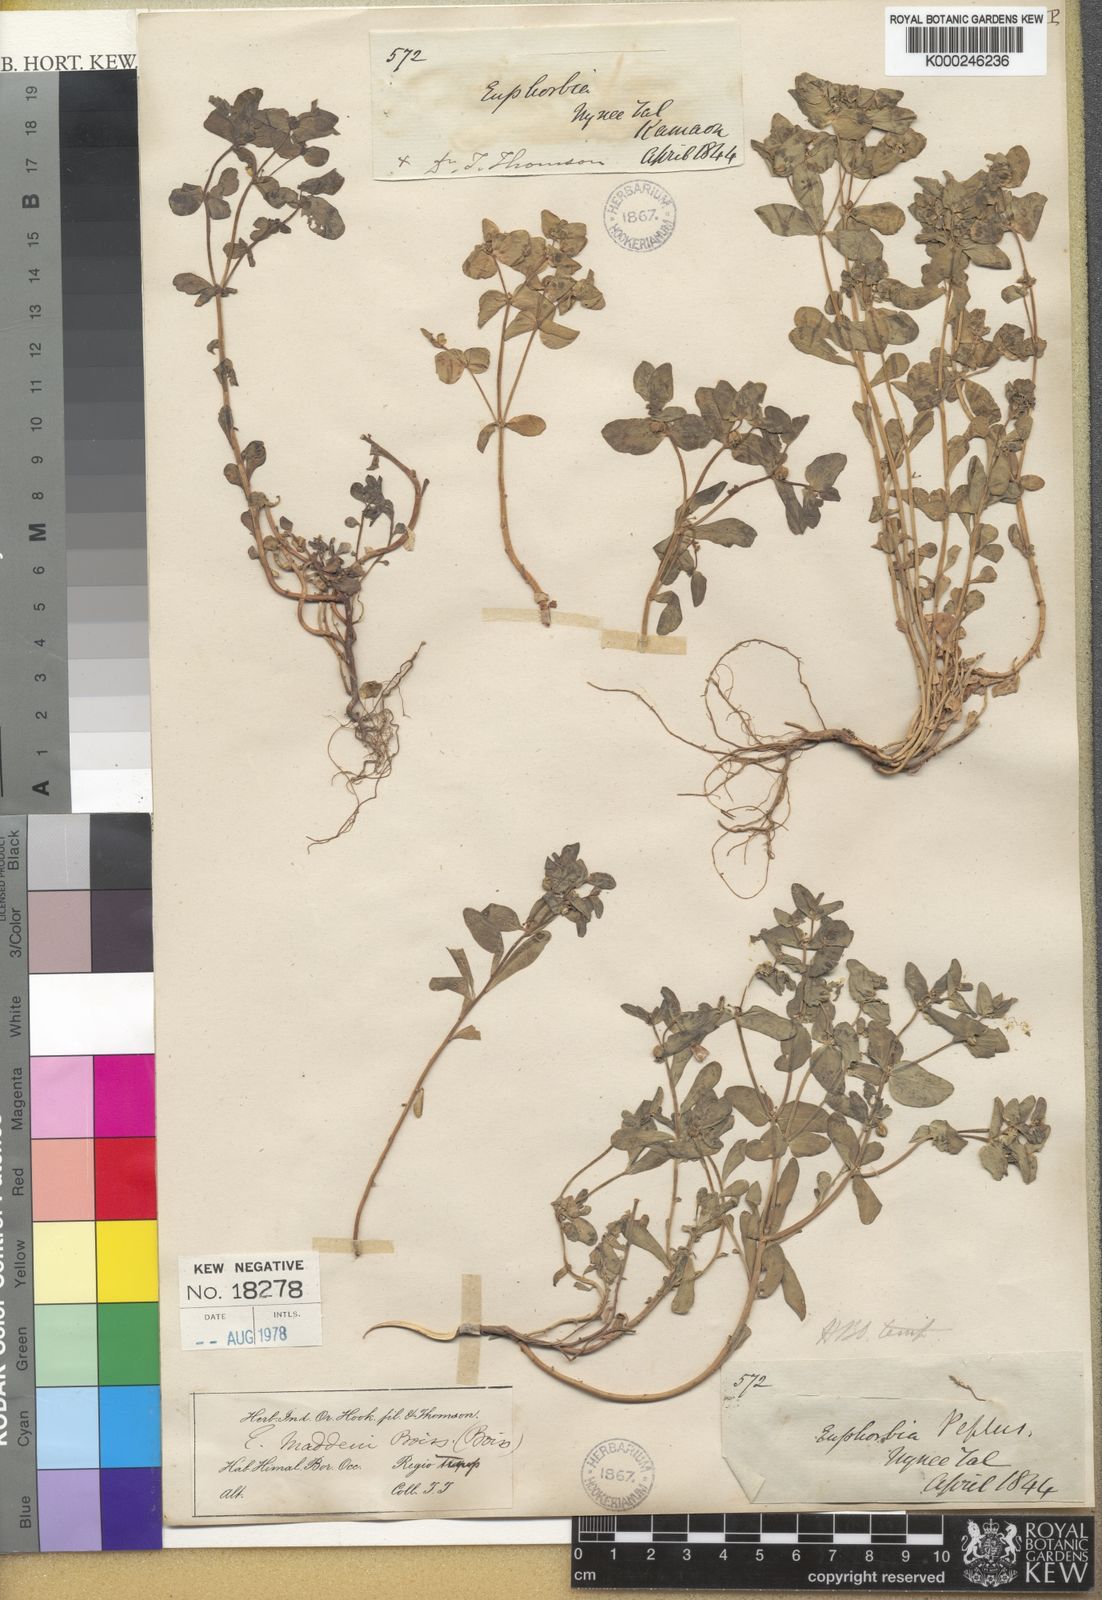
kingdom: Plantae
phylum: Tracheophyta
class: Magnoliopsida
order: Malpighiales
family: Euphorbiaceae
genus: Euphorbia
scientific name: Euphorbia maddenii
